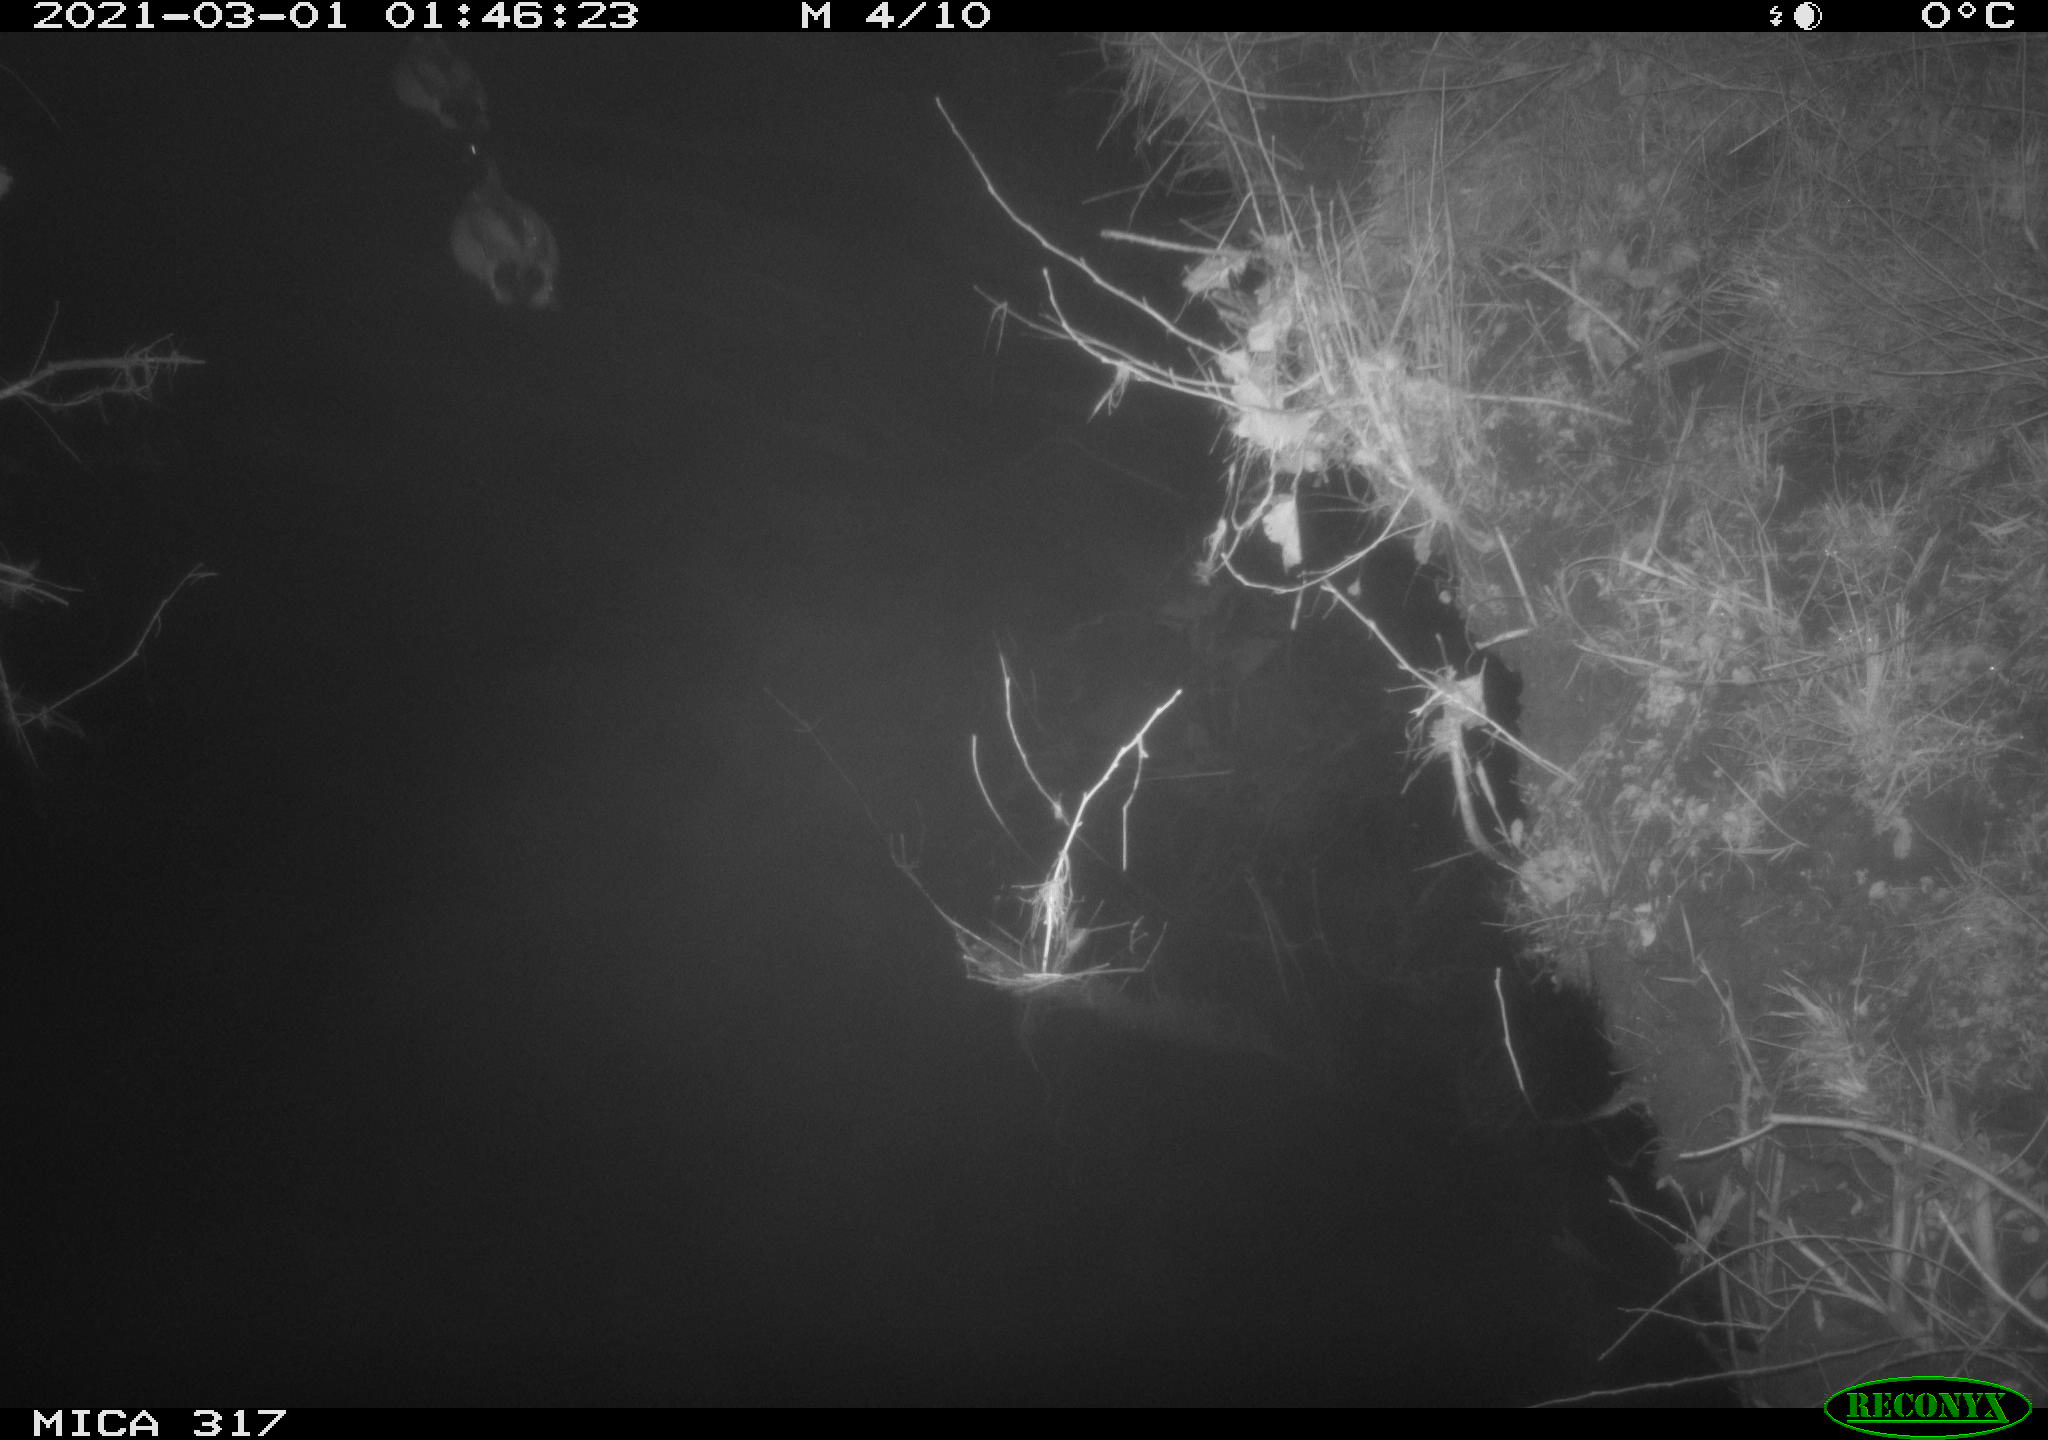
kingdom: Animalia
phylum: Chordata
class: Aves
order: Anseriformes
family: Anatidae
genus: Anas
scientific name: Anas platyrhynchos
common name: Mallard
